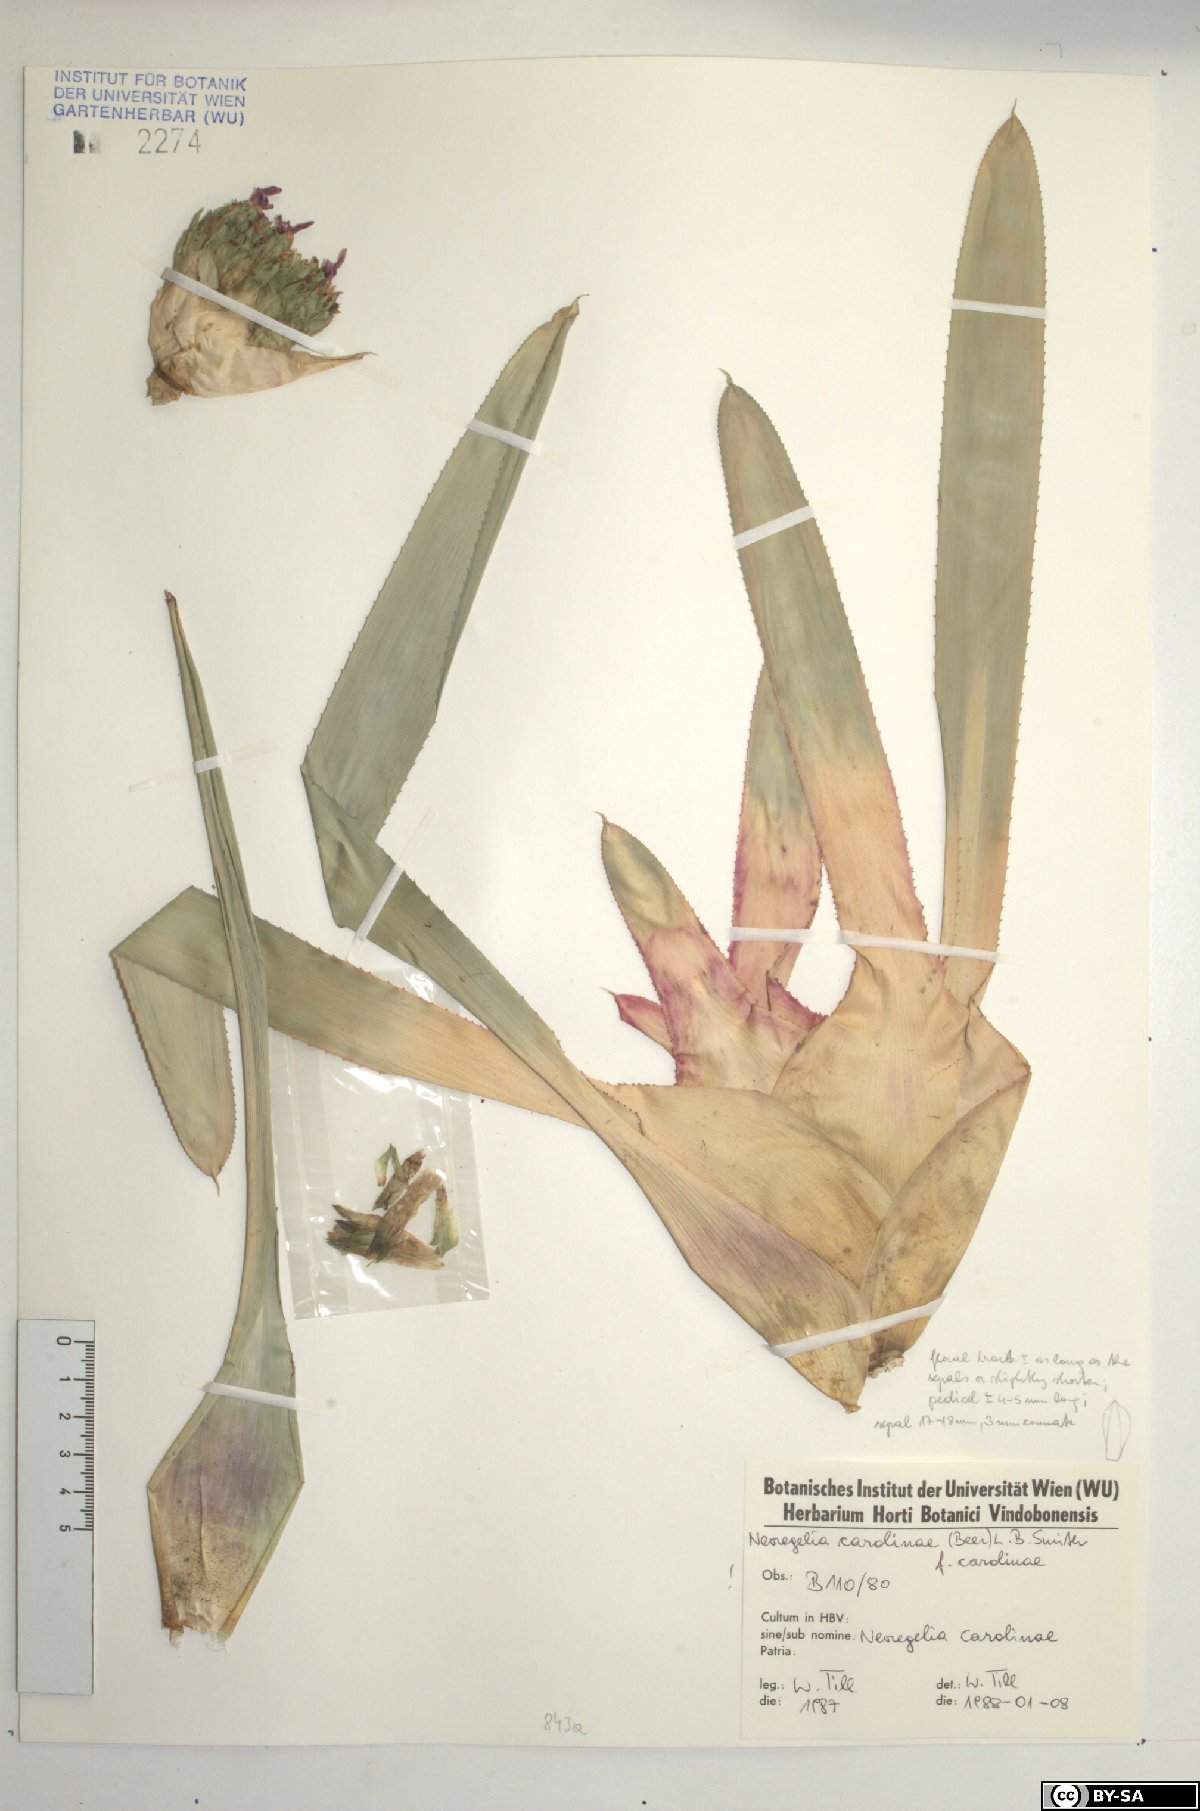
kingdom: Plantae
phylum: Tracheophyta
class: Liliopsida
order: Poales
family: Bromeliaceae
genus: Neoregelia
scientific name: Neoregelia carolinae
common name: Blushing bromeliad
